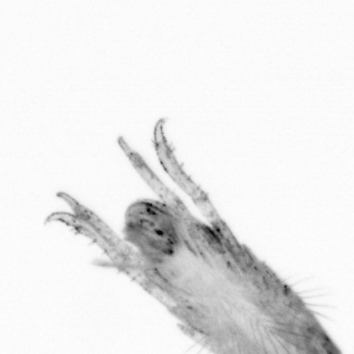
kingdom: Animalia
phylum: Annelida
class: Polychaeta
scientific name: Polychaeta
